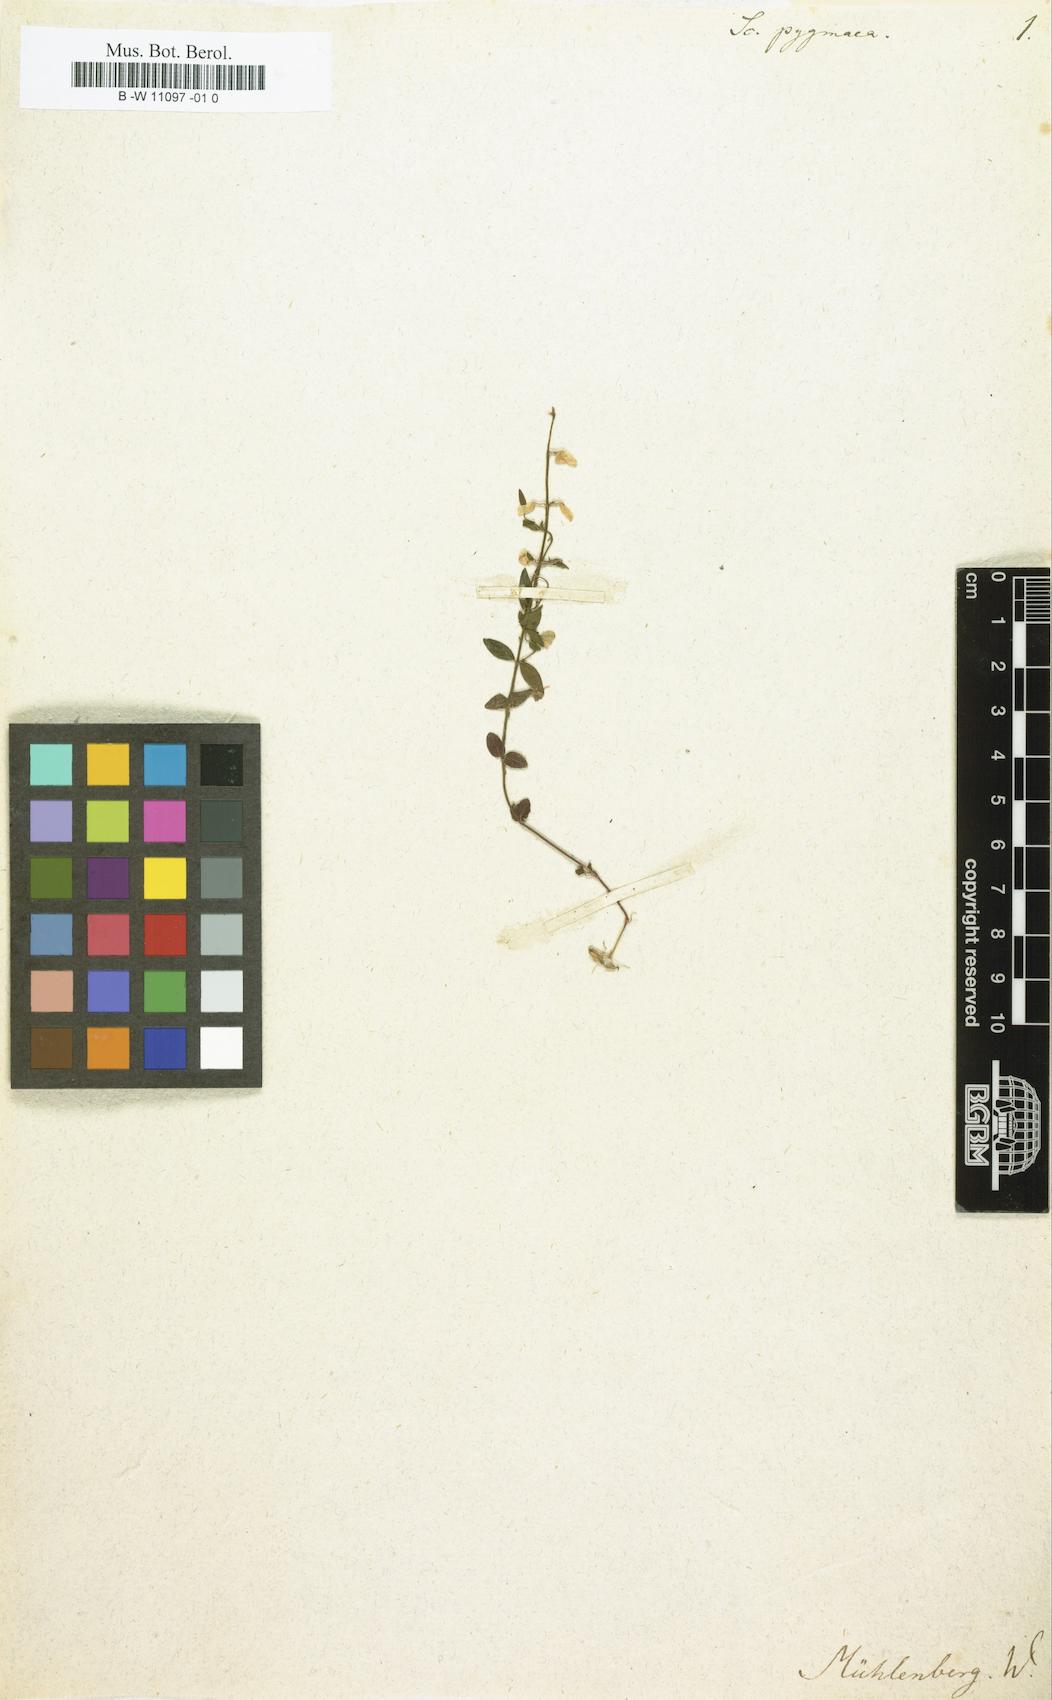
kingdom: Plantae
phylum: Tracheophyta
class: Magnoliopsida
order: Lamiales
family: Lamiaceae
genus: Scutellaria
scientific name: Scutellaria parvula
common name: Little scullcap
